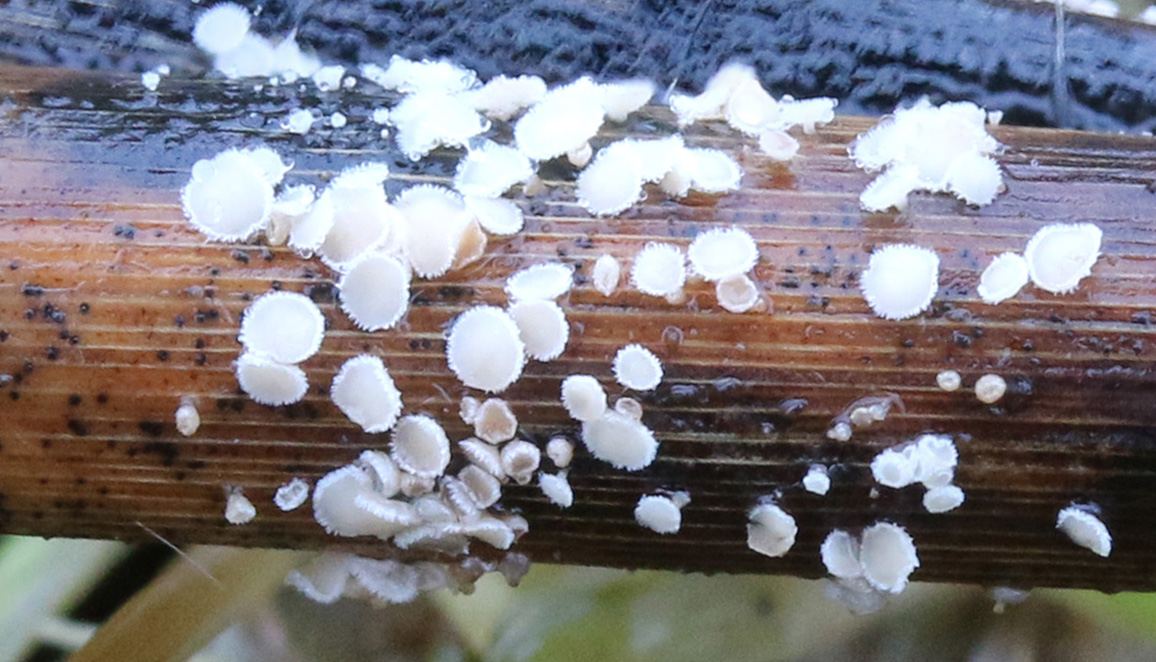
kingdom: Fungi
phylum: Ascomycota
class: Leotiomycetes
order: Helotiales
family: Lachnaceae
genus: Lachnum
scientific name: Lachnum apalum
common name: siv-frynseskive
